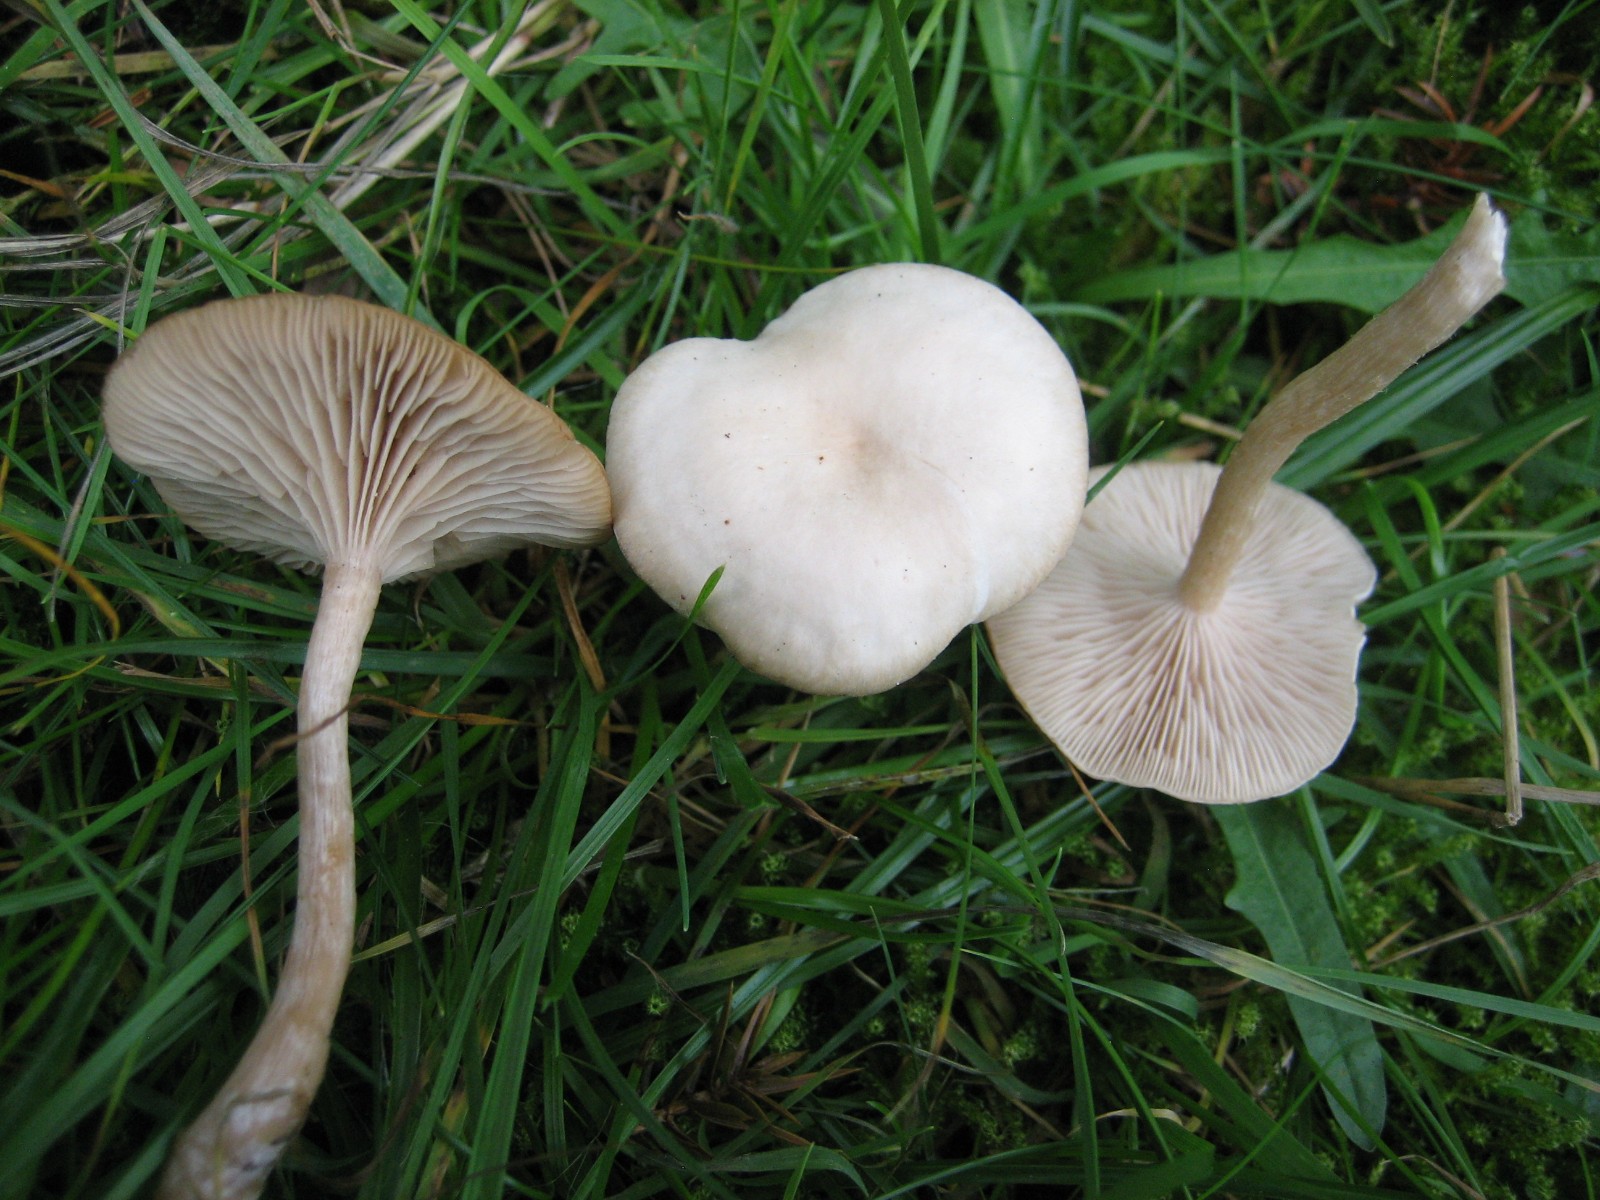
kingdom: Fungi
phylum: Basidiomycota
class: Agaricomycetes
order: Agaricales
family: Tricholomataceae
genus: Clitocybe
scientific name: Clitocybe fragrans
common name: vellugtende tragthat
